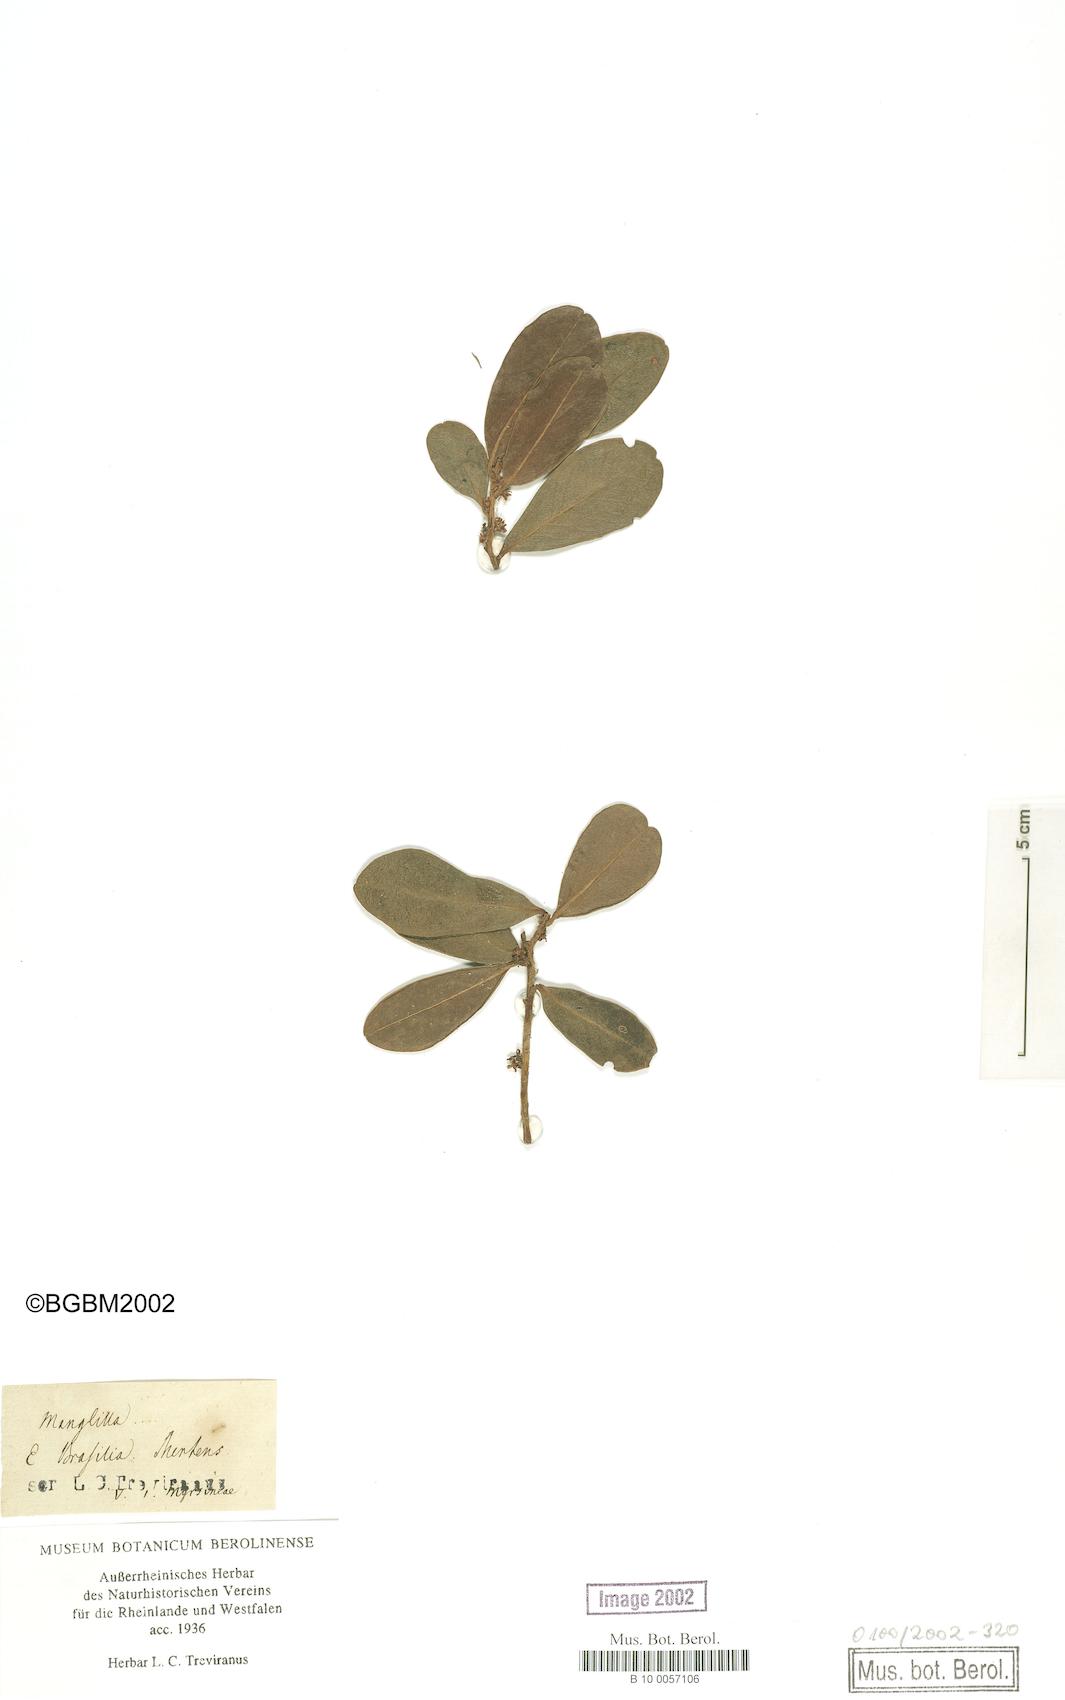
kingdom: Plantae
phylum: Tracheophyta
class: Magnoliopsida
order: Ericales
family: Primulaceae
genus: Myrsine
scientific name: Myrsine
